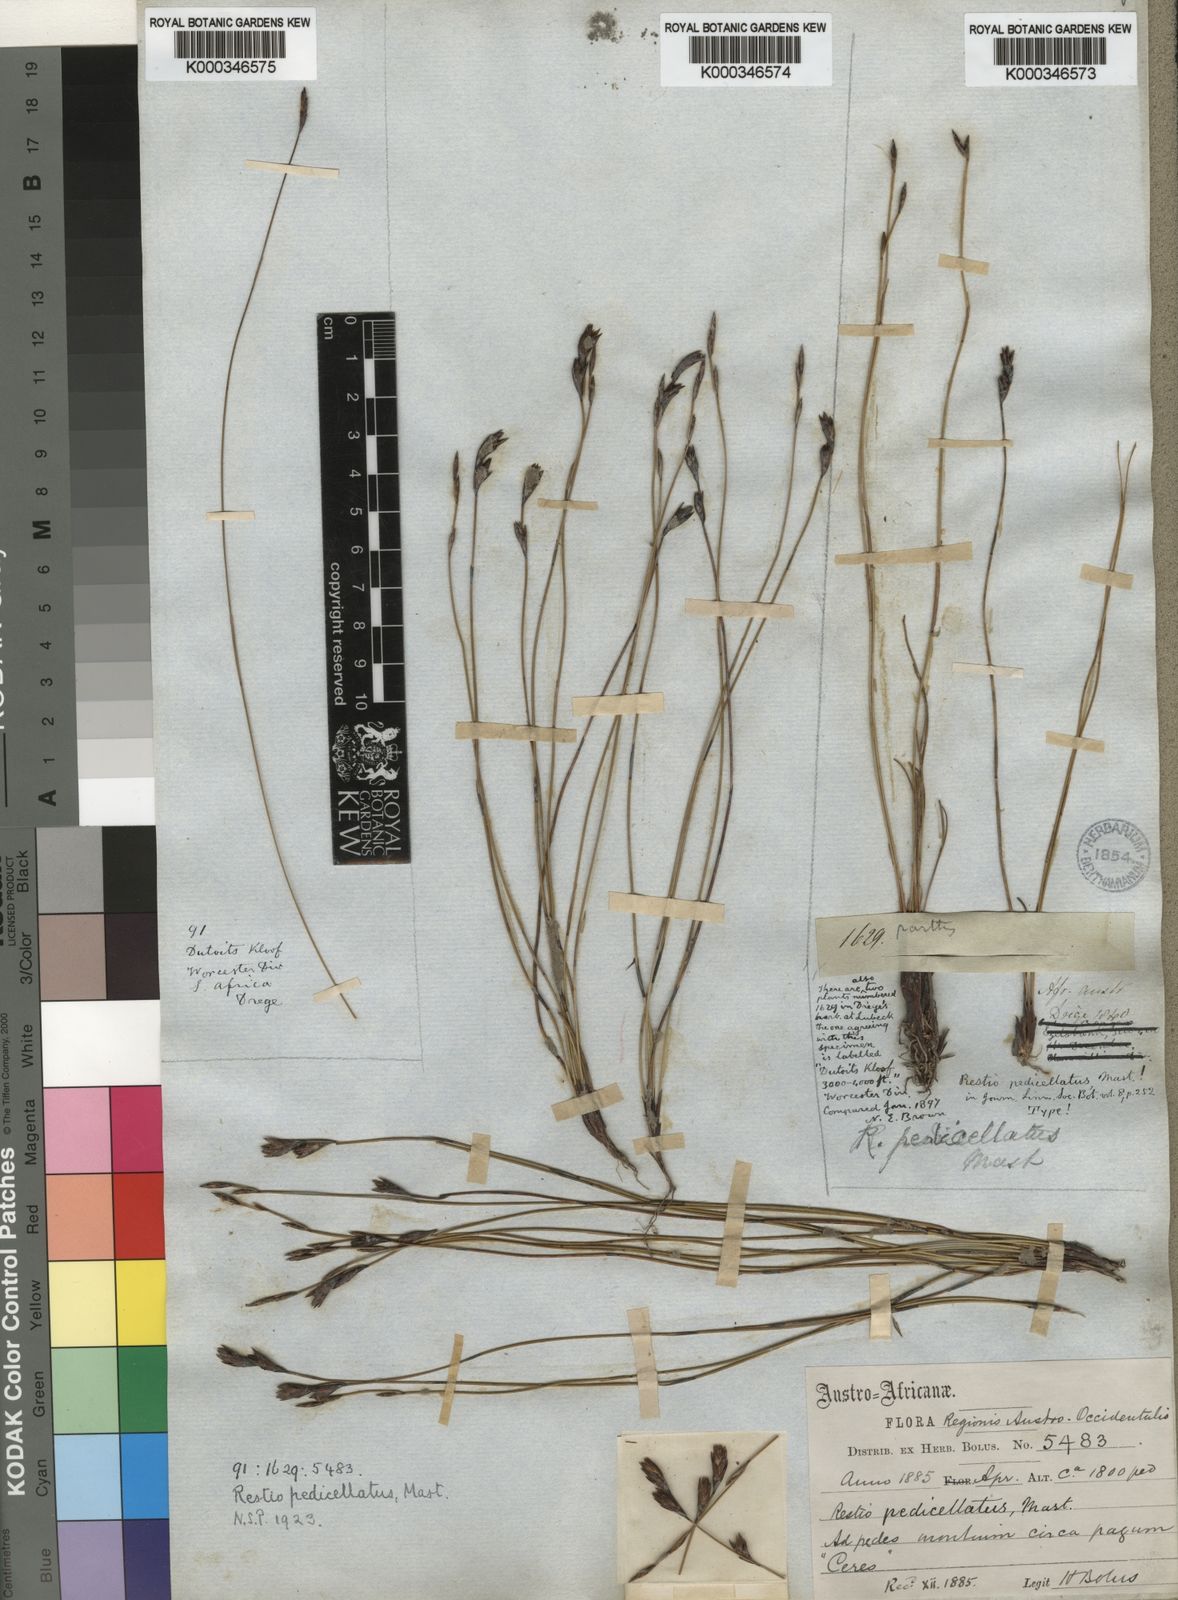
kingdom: Plantae
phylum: Tracheophyta
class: Liliopsida
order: Poales
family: Restionaceae
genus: Restio
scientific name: Restio pedicellatus
